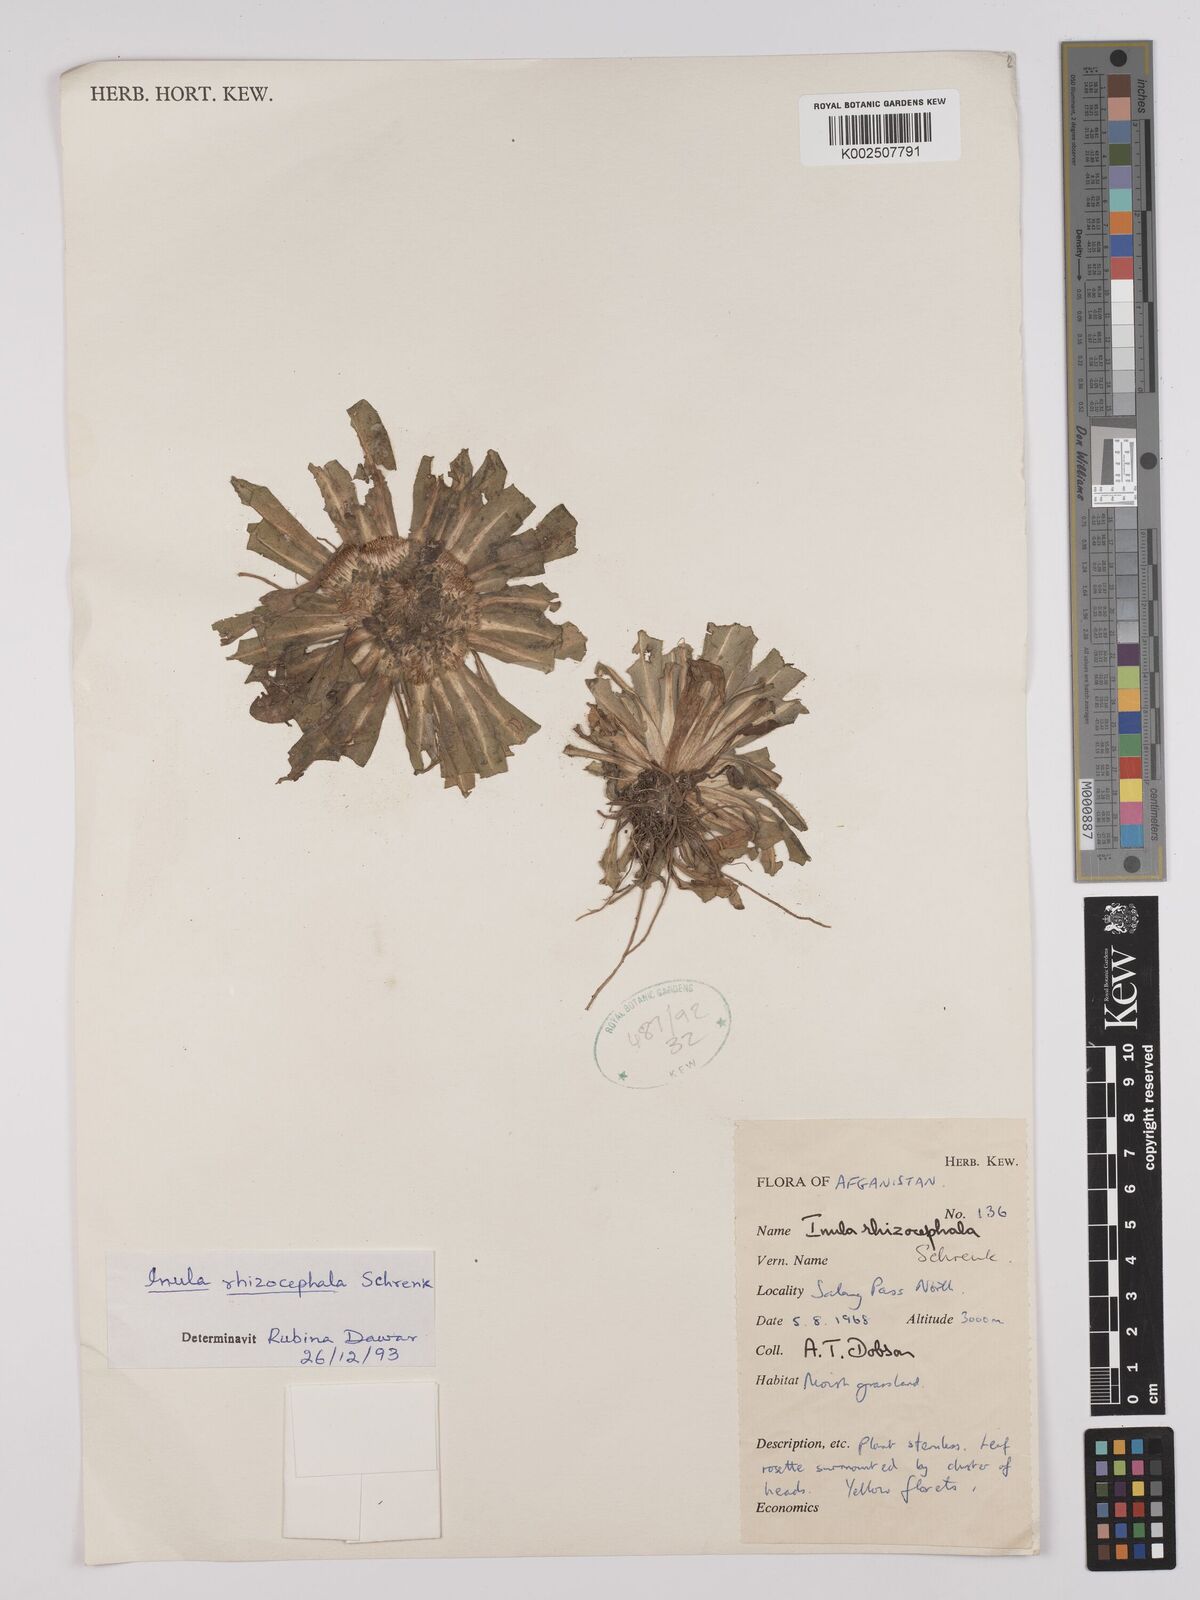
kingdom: Plantae
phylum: Tracheophyta
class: Magnoliopsida
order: Asterales
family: Asteraceae
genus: Inula
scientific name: Inula rhizocephala
